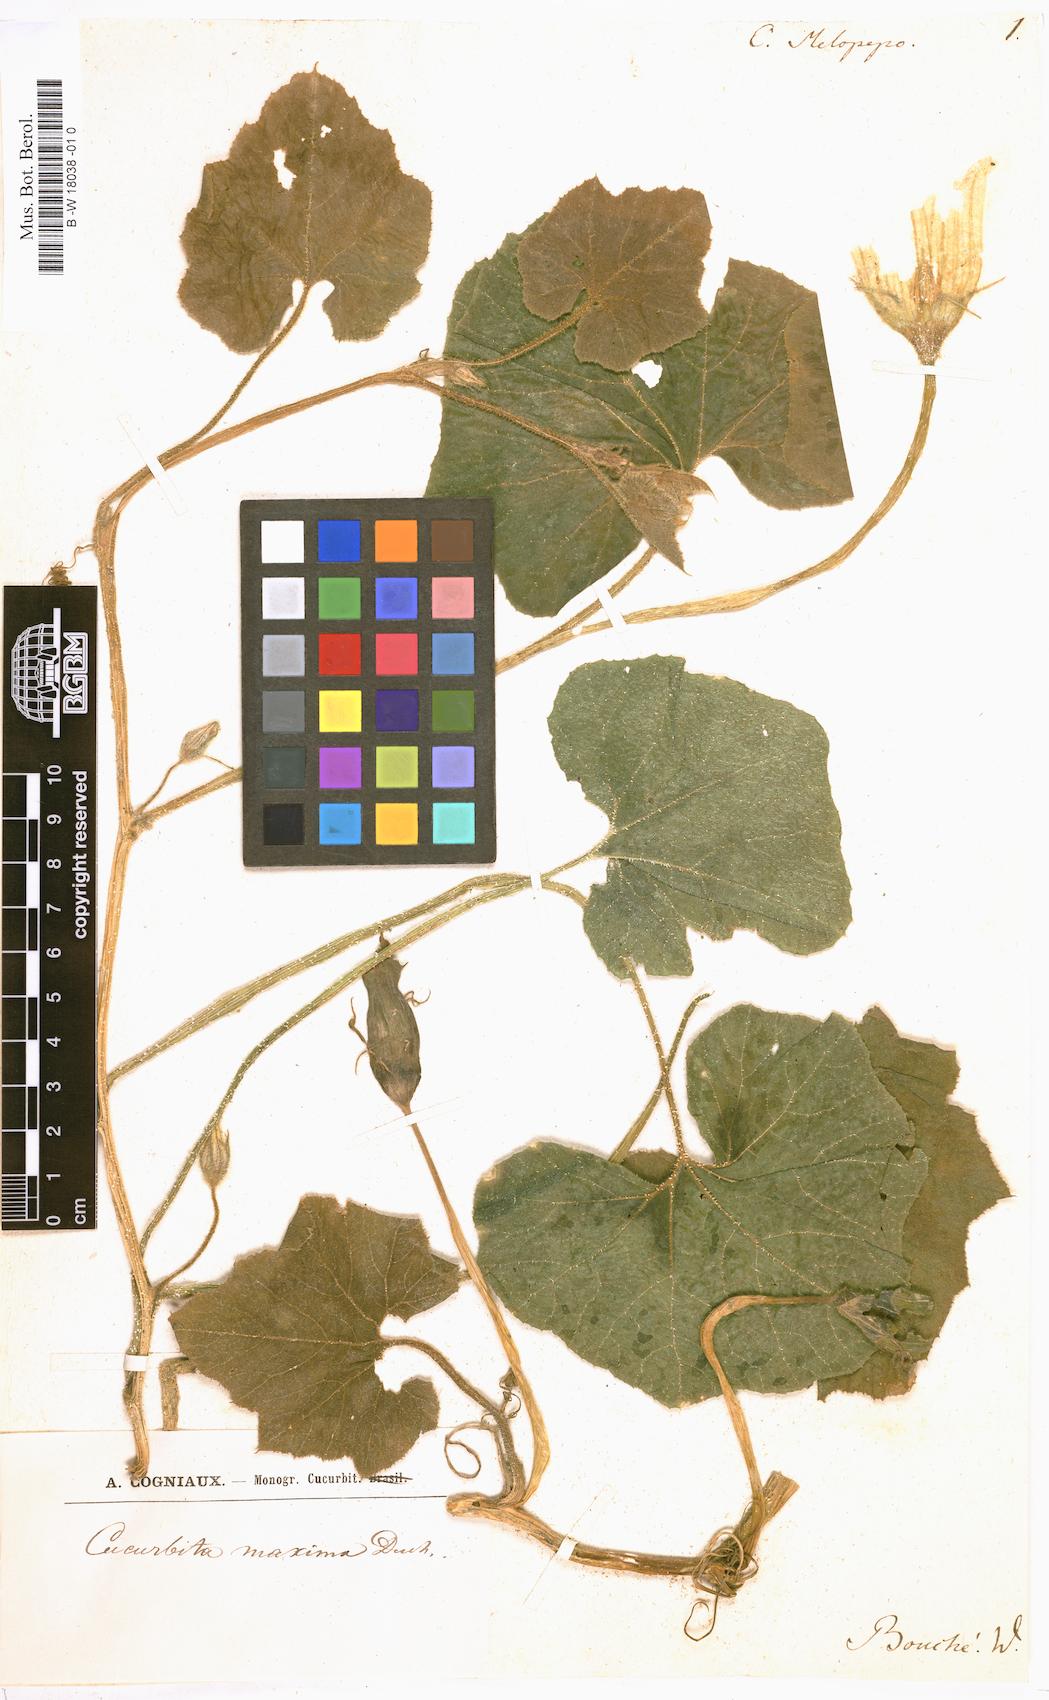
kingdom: Plantae
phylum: Tracheophyta
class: Magnoliopsida
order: Cucurbitales
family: Cucurbitaceae
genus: Cucurbita
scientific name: Cucurbita melopepo
